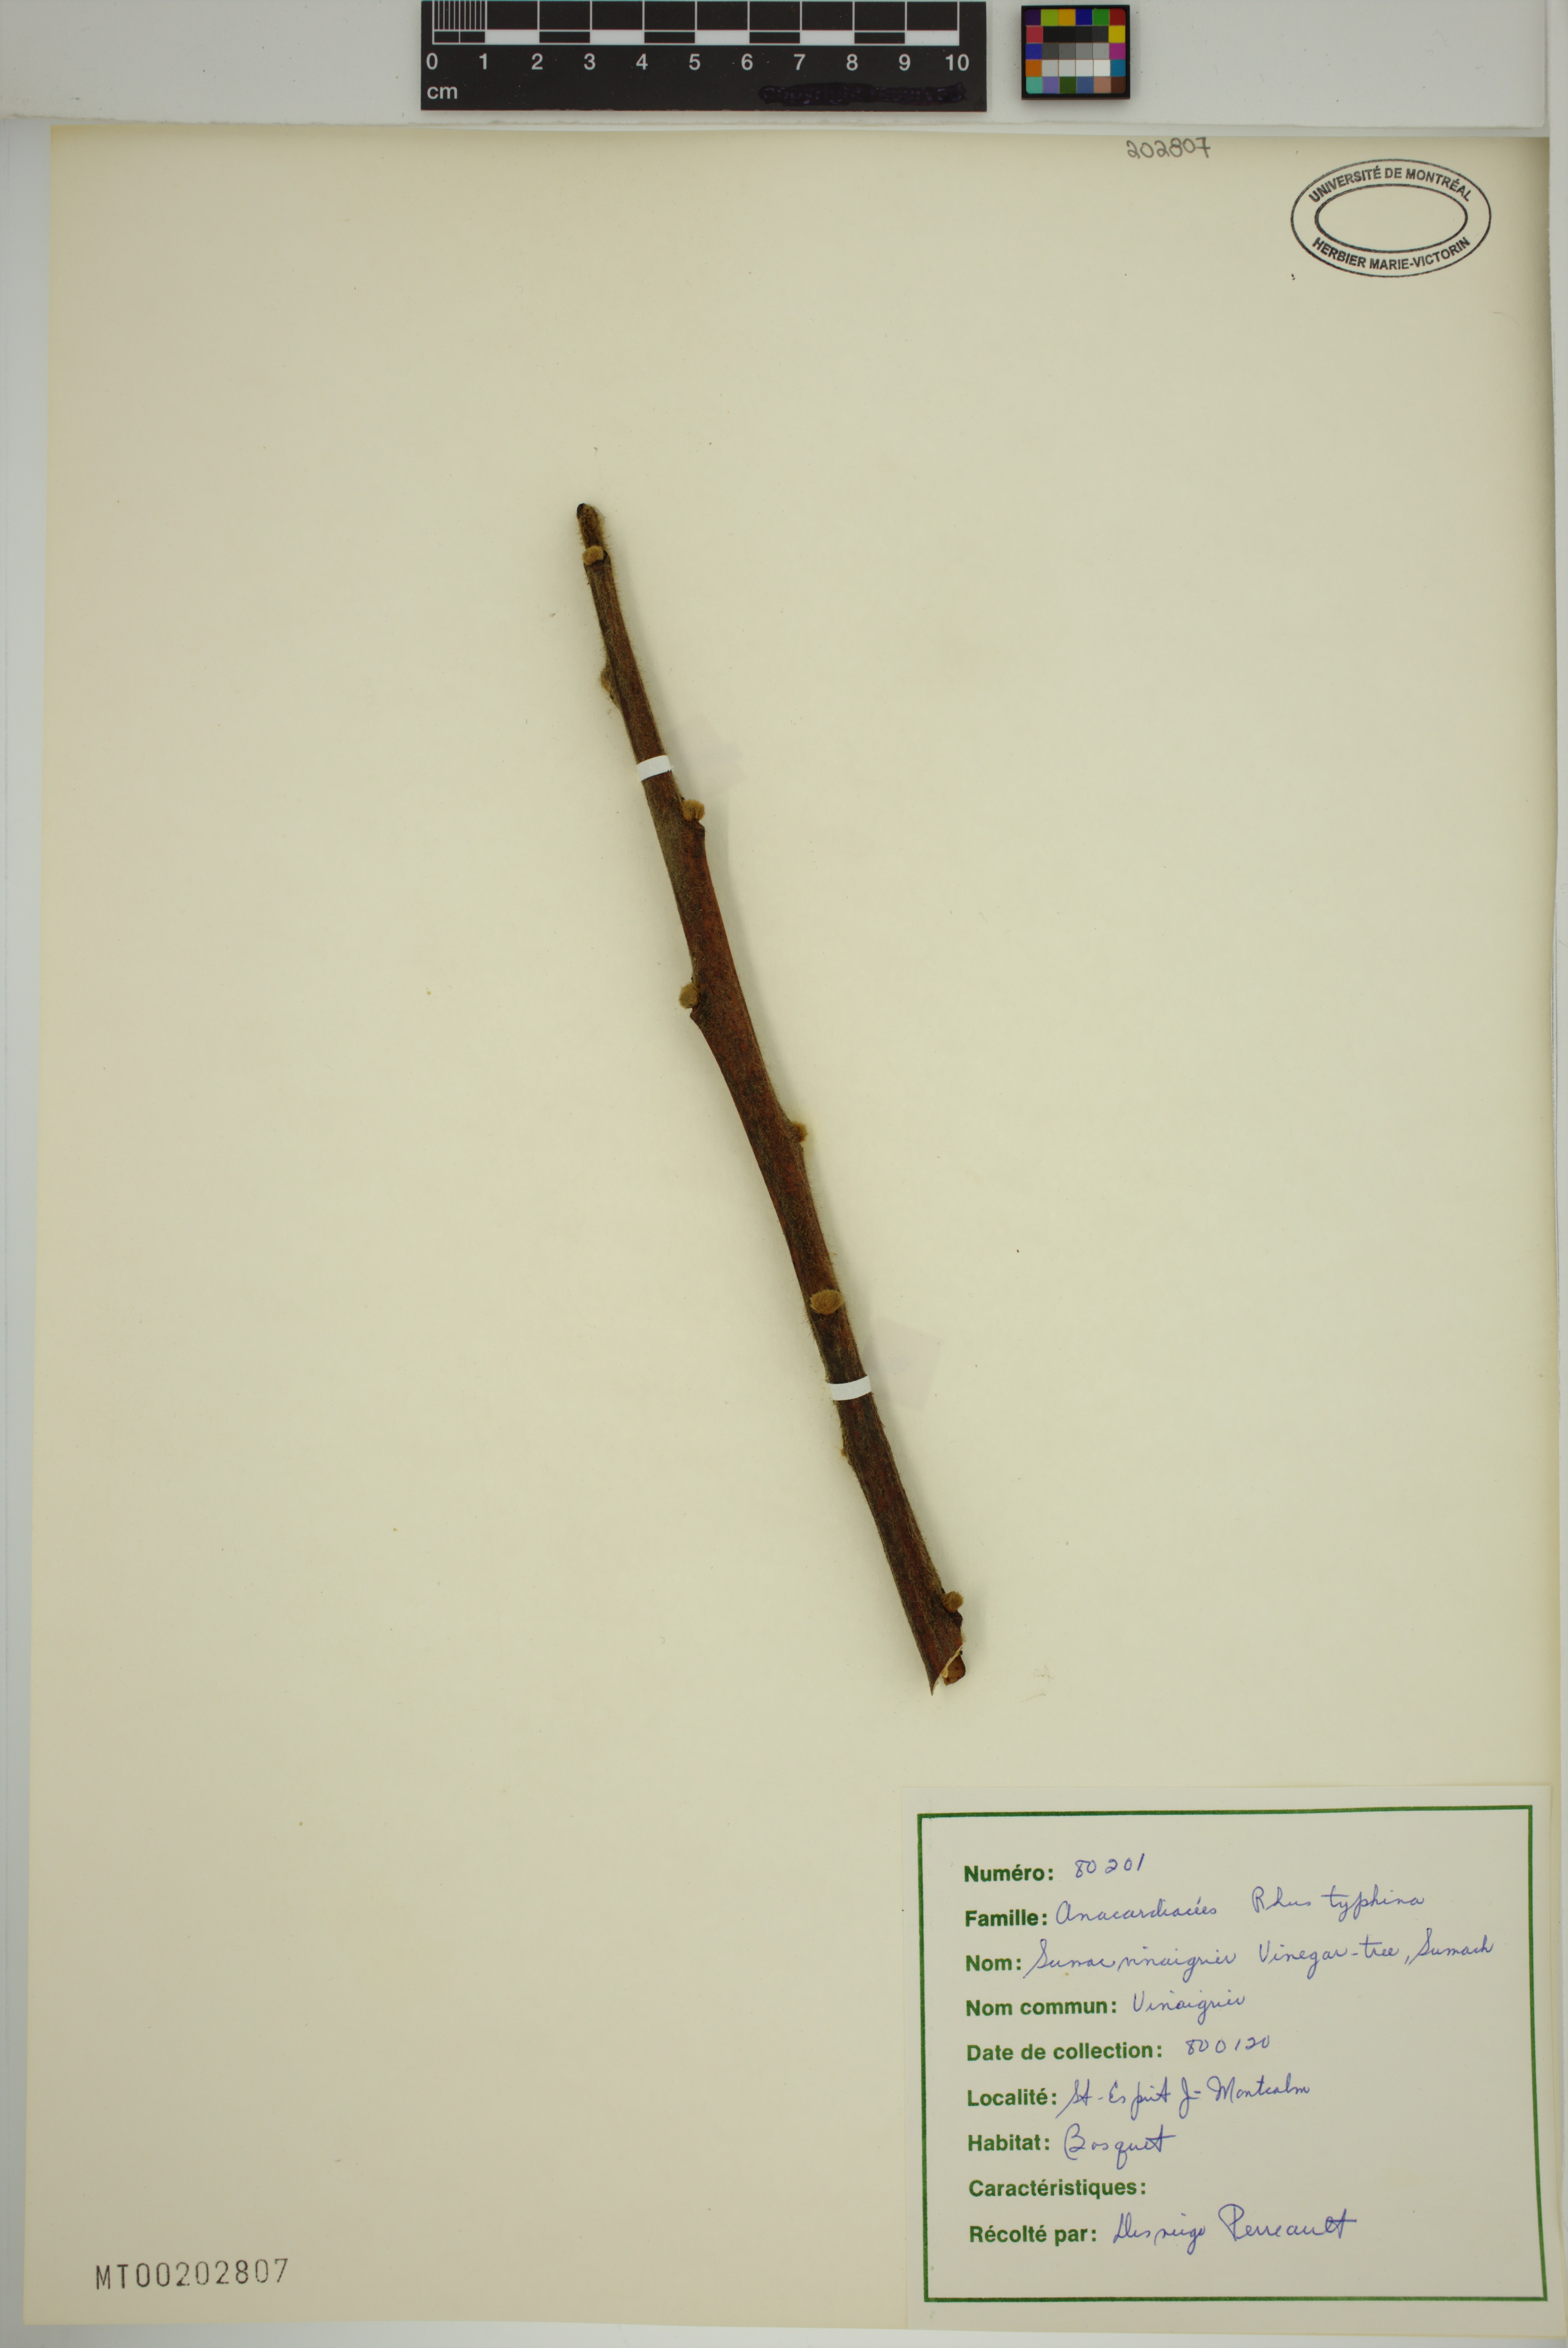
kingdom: Plantae
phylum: Tracheophyta
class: Magnoliopsida
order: Sapindales
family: Anacardiaceae
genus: Rhus
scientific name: Rhus typhina
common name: Staghorn sumac
